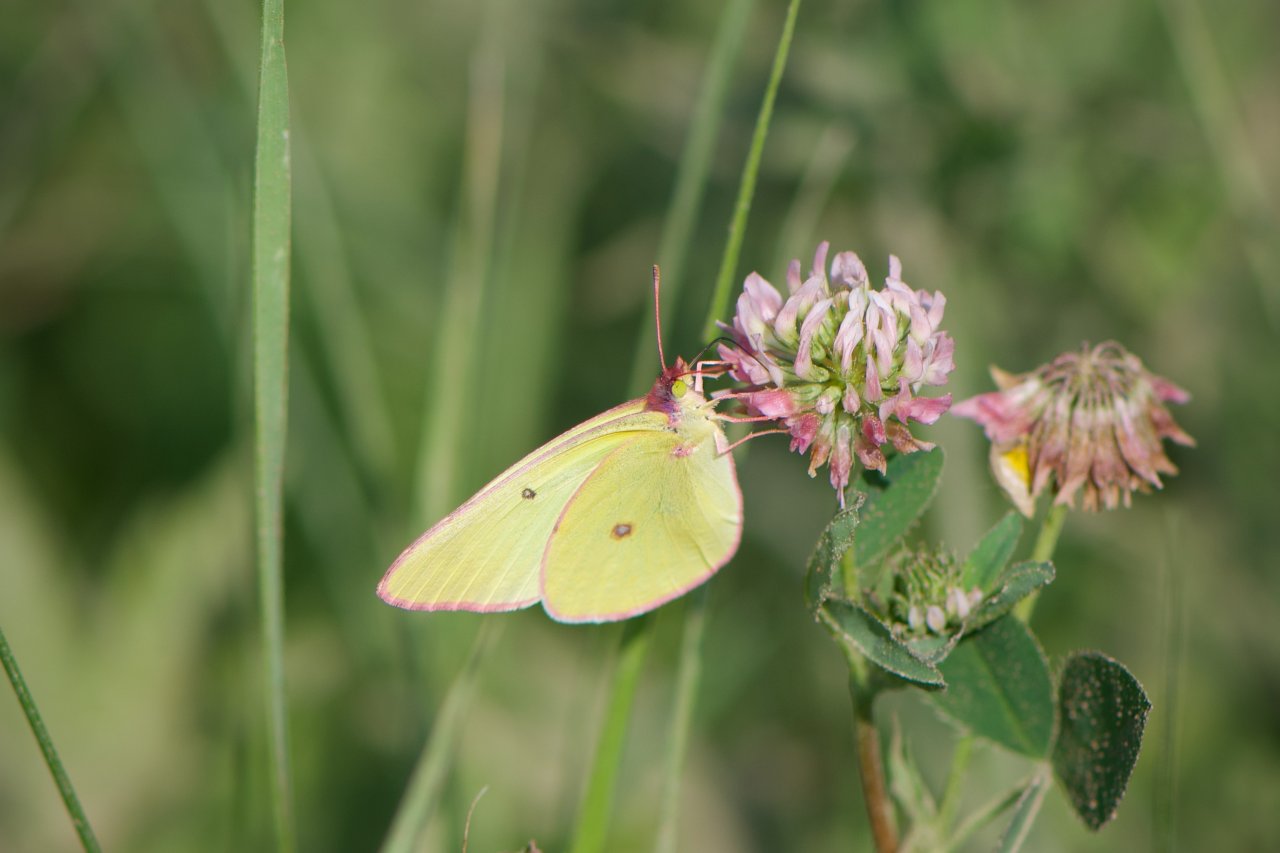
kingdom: Animalia
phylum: Arthropoda
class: Insecta
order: Lepidoptera
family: Pieridae
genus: Colias
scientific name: Colias interior
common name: Pink-edged Sulphur
